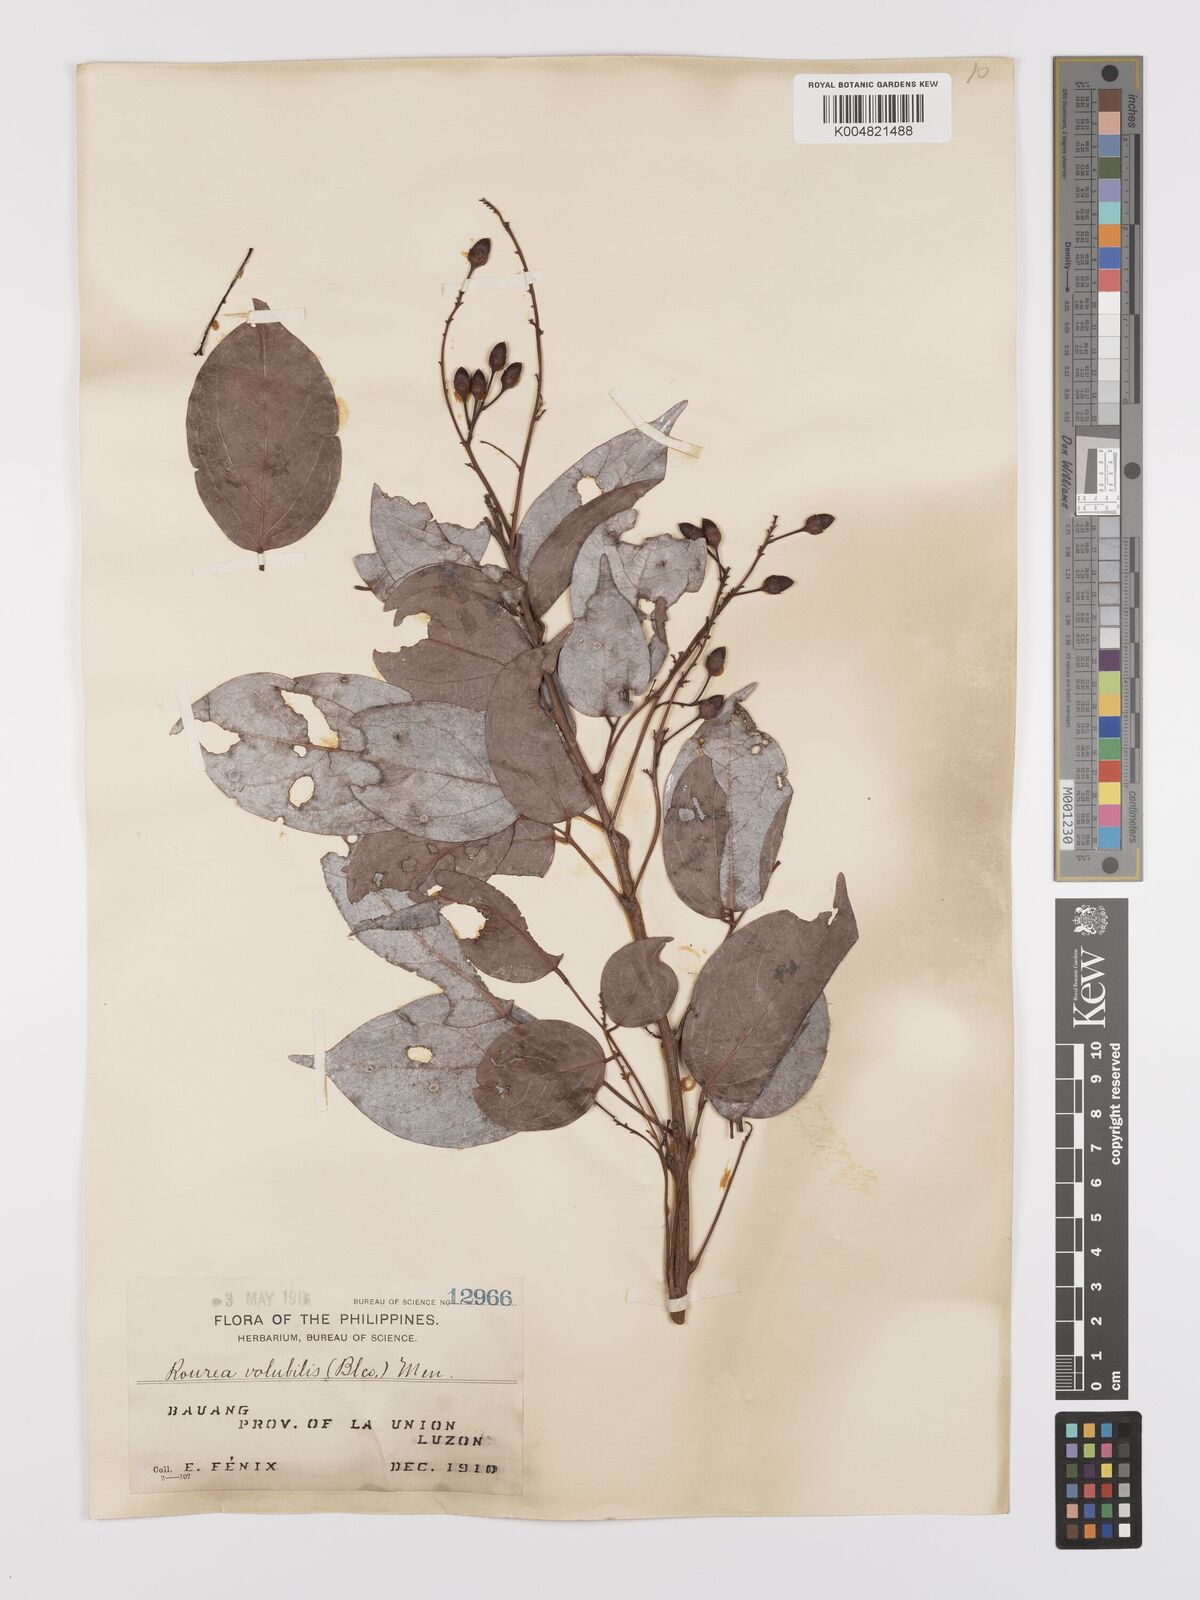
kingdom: Plantae
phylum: Tracheophyta
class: Magnoliopsida
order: Oxalidales
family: Connaraceae
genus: Rourea
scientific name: Rourea minor
